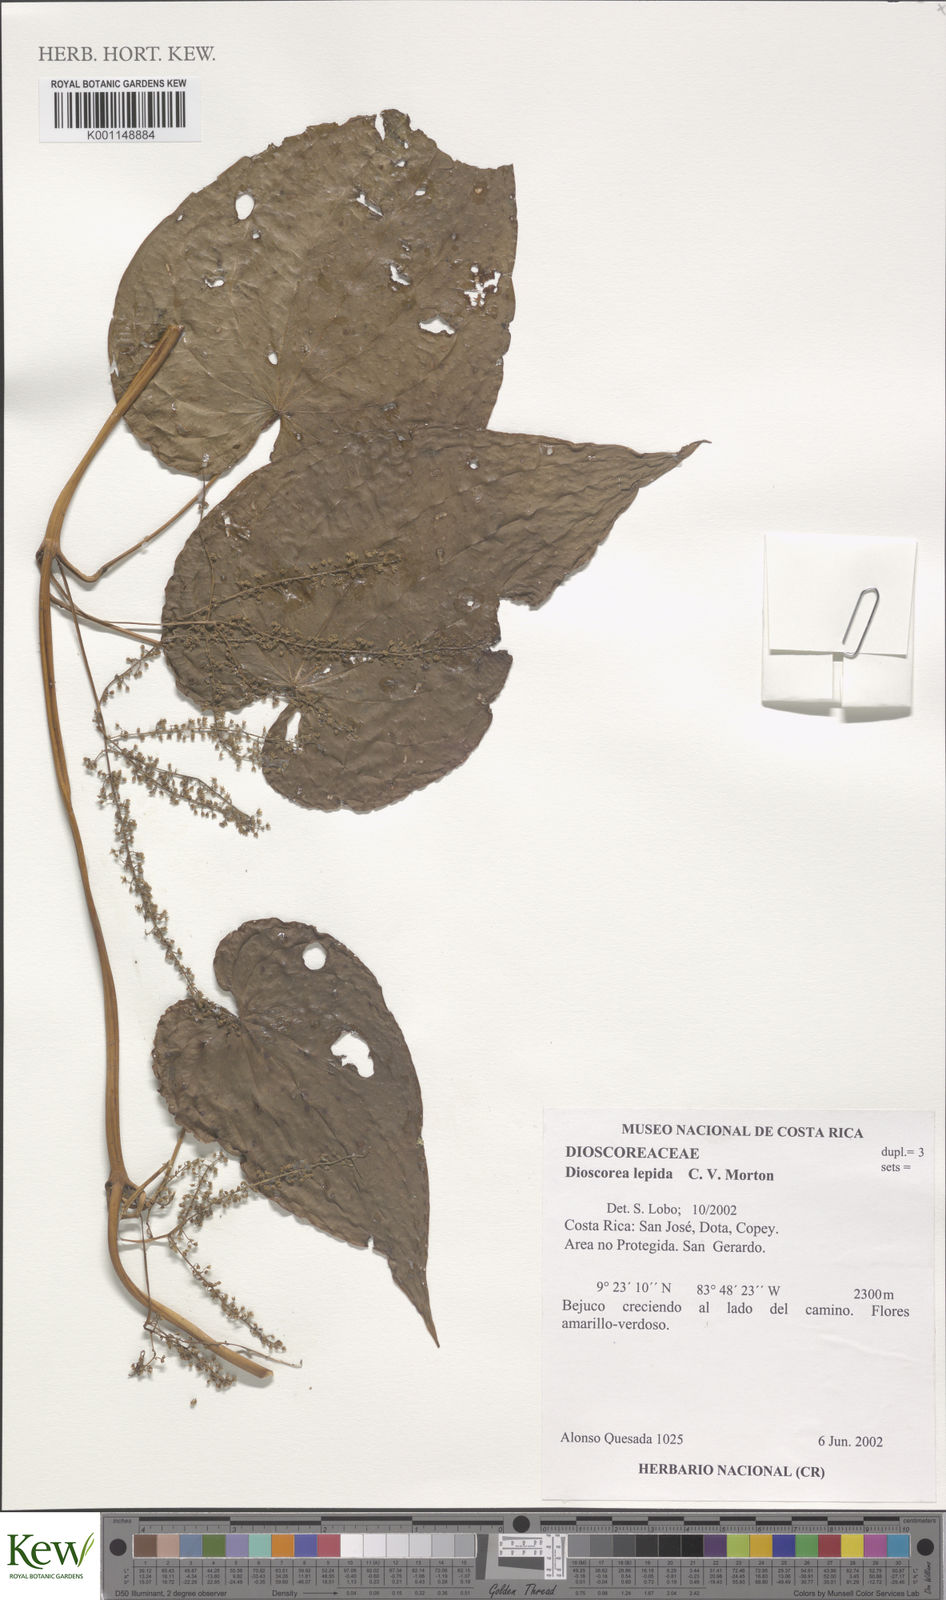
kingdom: Plantae
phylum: Tracheophyta
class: Liliopsida
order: Dioscoreales
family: Dioscoreaceae
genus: Dioscorea
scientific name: Dioscorea lepida
